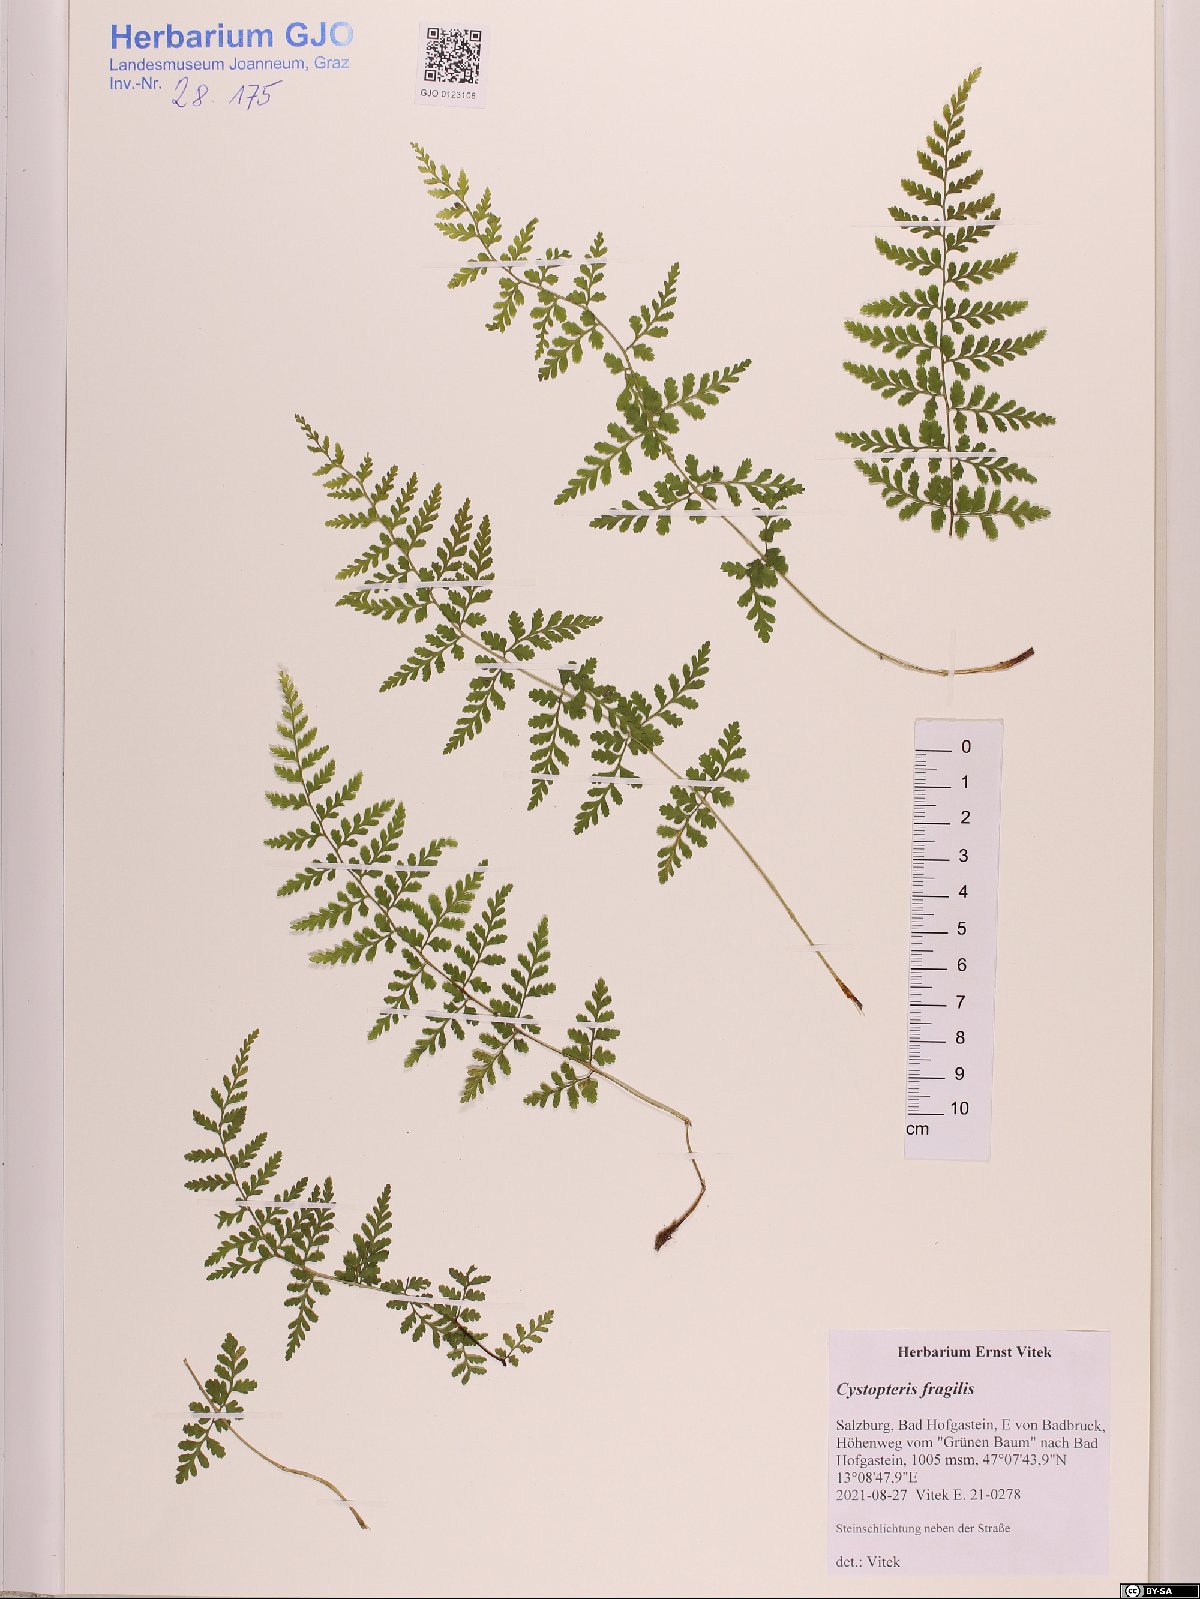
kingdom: Plantae
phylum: Tracheophyta
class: Polypodiopsida
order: Polypodiales
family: Cystopteridaceae
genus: Cystopteris
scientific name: Cystopteris fragilis
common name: Brittle bladder fern
